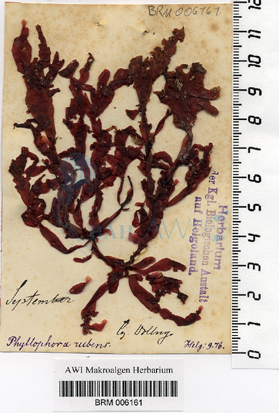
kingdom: Plantae
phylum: Rhodophyta
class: Florideophyceae
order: Gigartinales
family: Phyllophoraceae
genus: Phyllophora
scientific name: Phyllophora crispa
